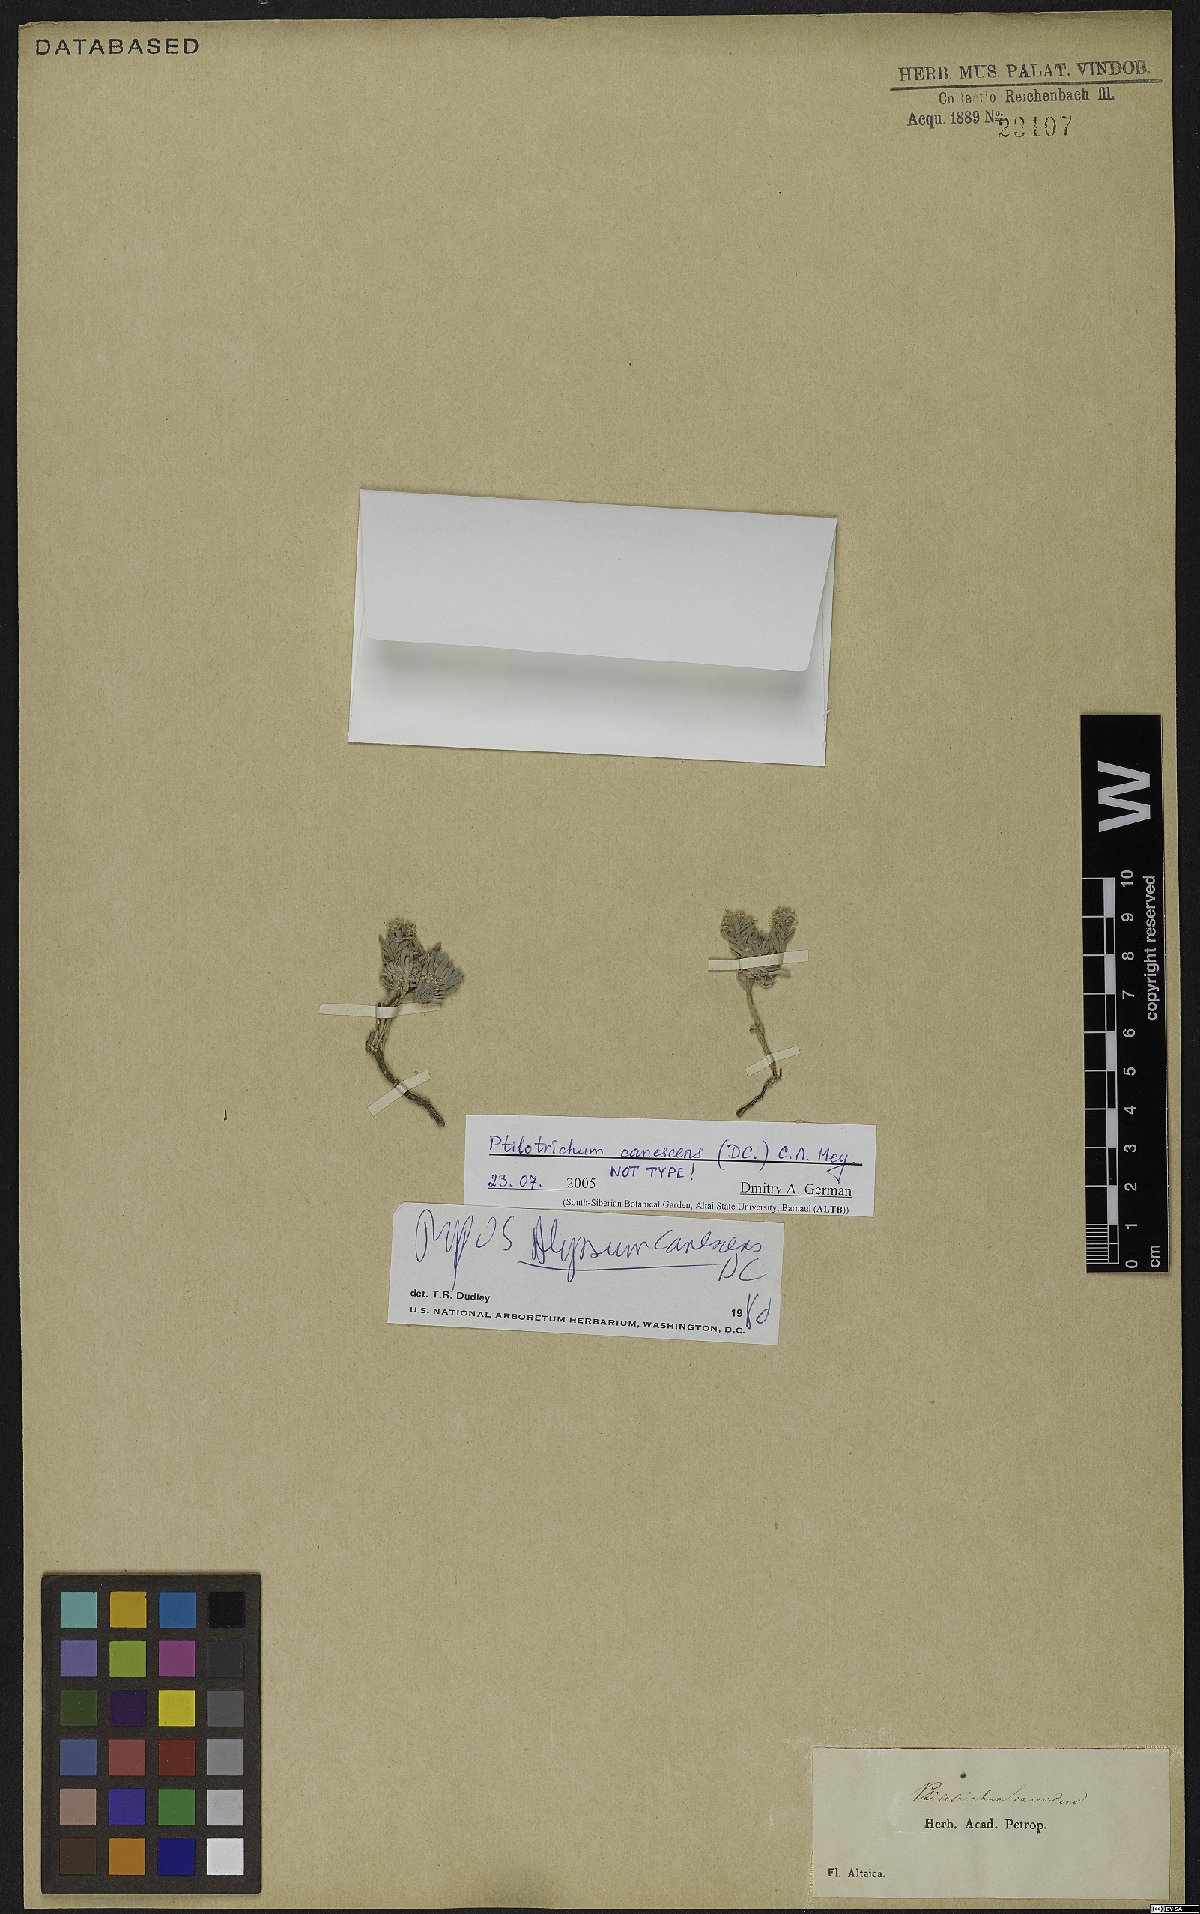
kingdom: Plantae
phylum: Tracheophyta
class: Magnoliopsida
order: Brassicales
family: Brassicaceae
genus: Stevenia
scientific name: Stevenia canescens
